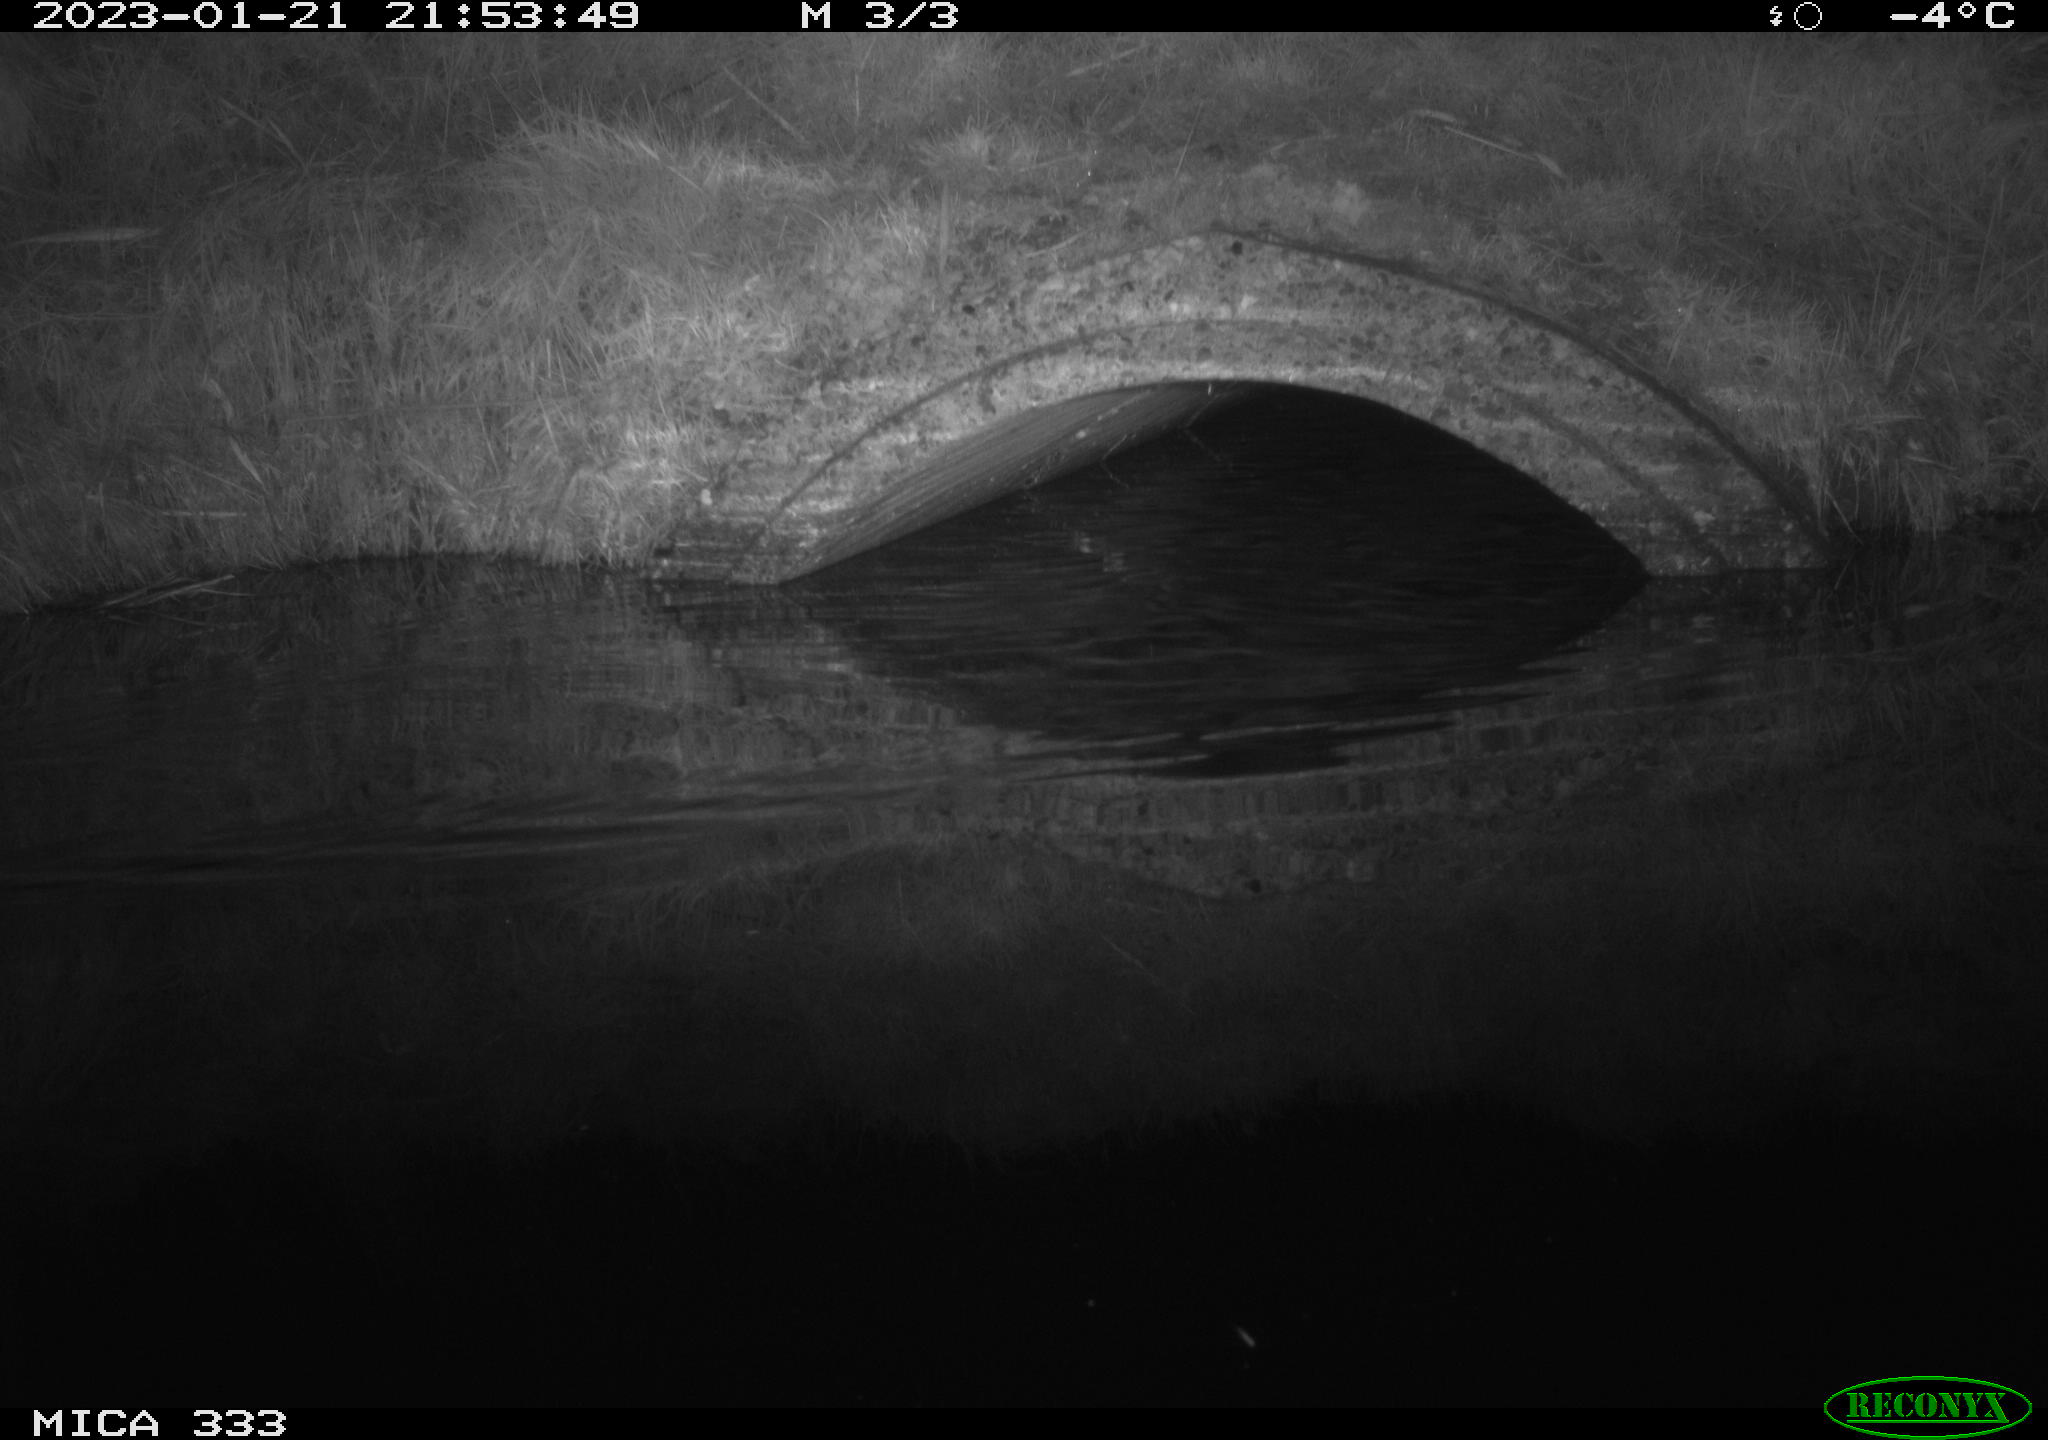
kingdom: Animalia
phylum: Chordata
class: Mammalia
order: Rodentia
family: Muridae
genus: Rattus
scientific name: Rattus norvegicus
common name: Brown rat
